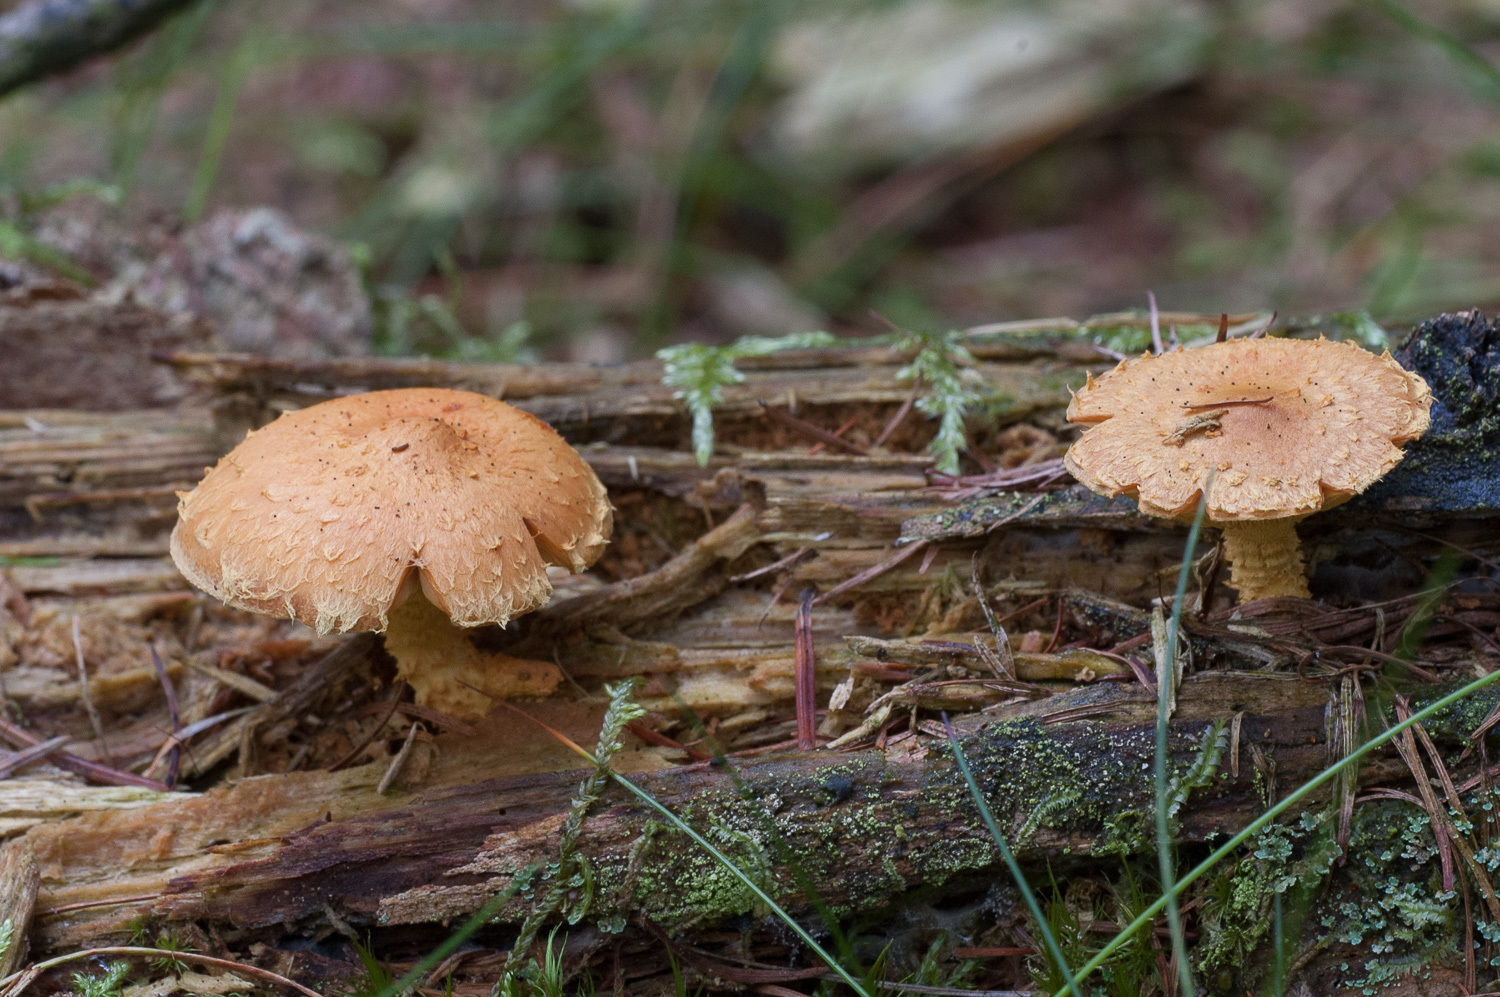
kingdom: Fungi
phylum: Basidiomycota
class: Agaricomycetes
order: Agaricales
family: Strophariaceae
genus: Pholiota
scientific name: Pholiota flammans
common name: flamme-skælhat
